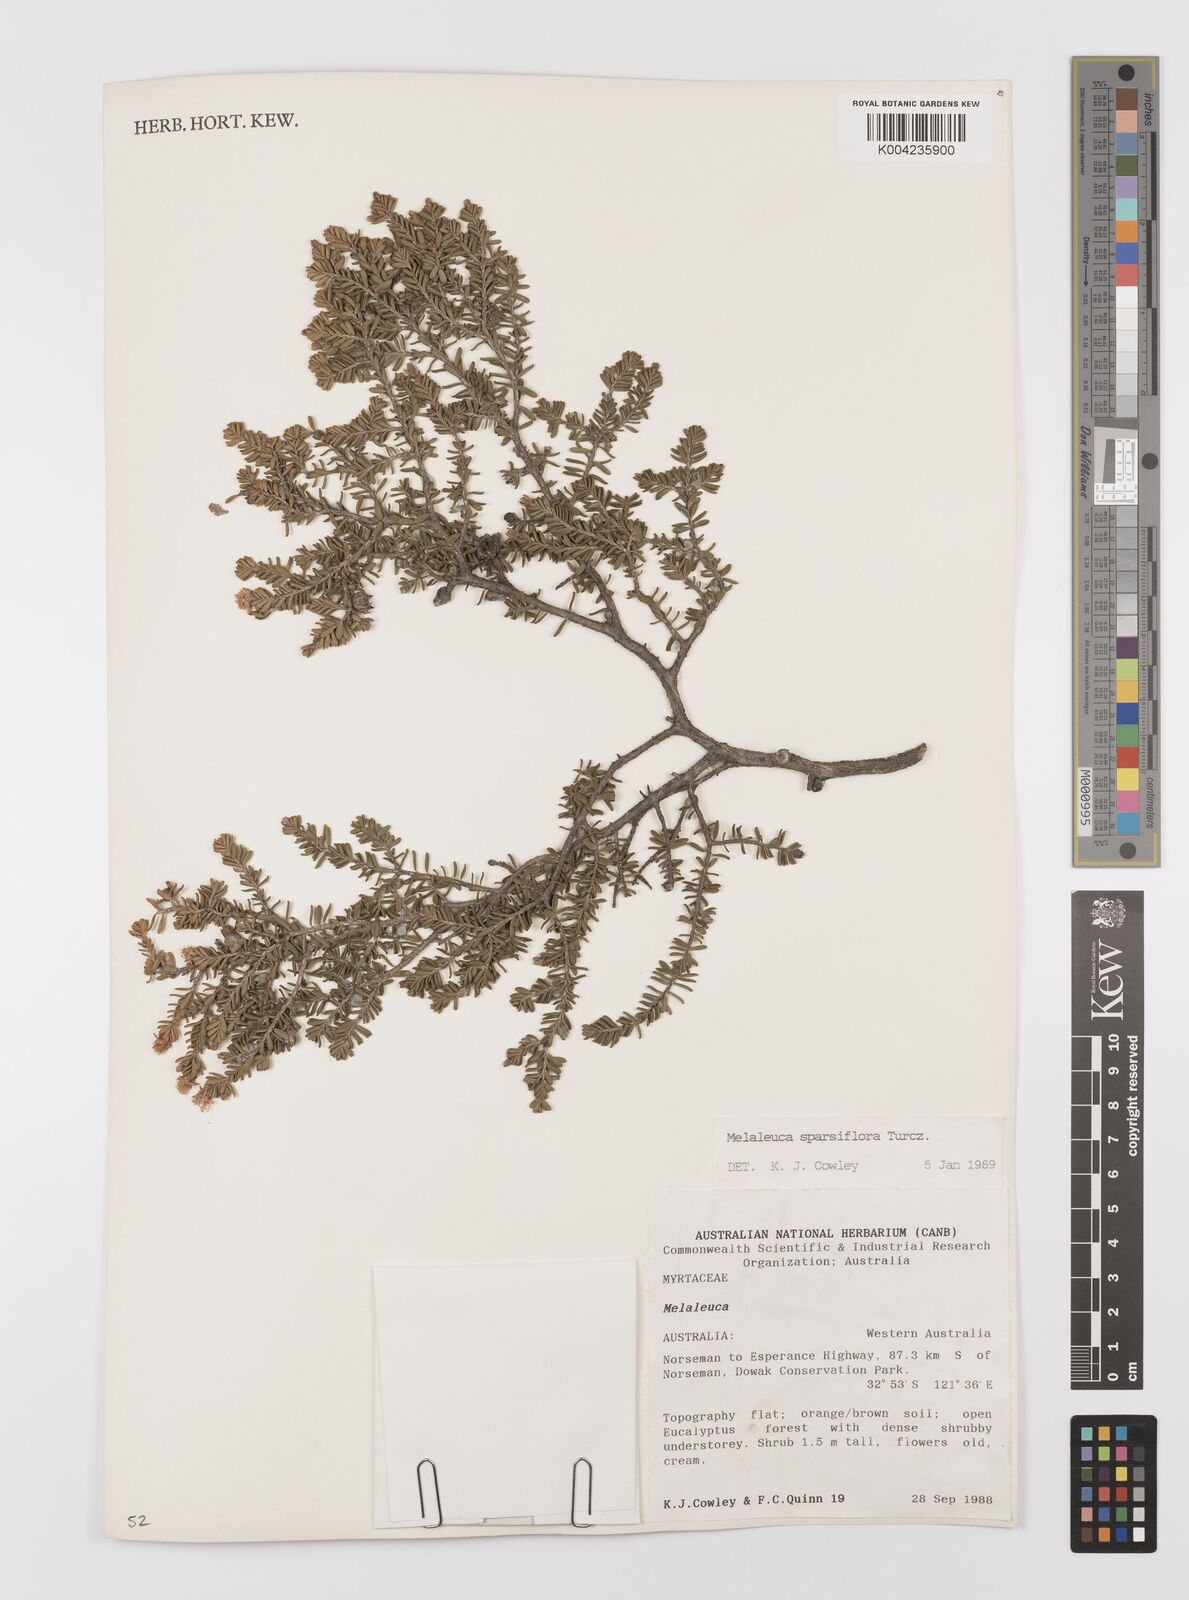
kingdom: Plantae
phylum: Tracheophyta
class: Magnoliopsida
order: Myrtales
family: Myrtaceae
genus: Melaleuca
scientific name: Melaleuca sparsiflora
